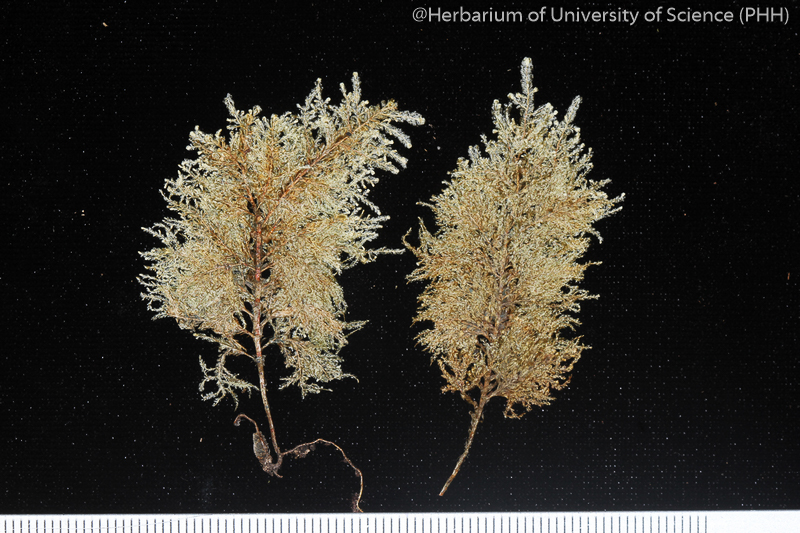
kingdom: Plantae
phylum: Bryophyta
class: Bryopsida
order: Hypnales
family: Neckeraceae
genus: Homaliodendron
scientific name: Homaliodendron flabellatum
